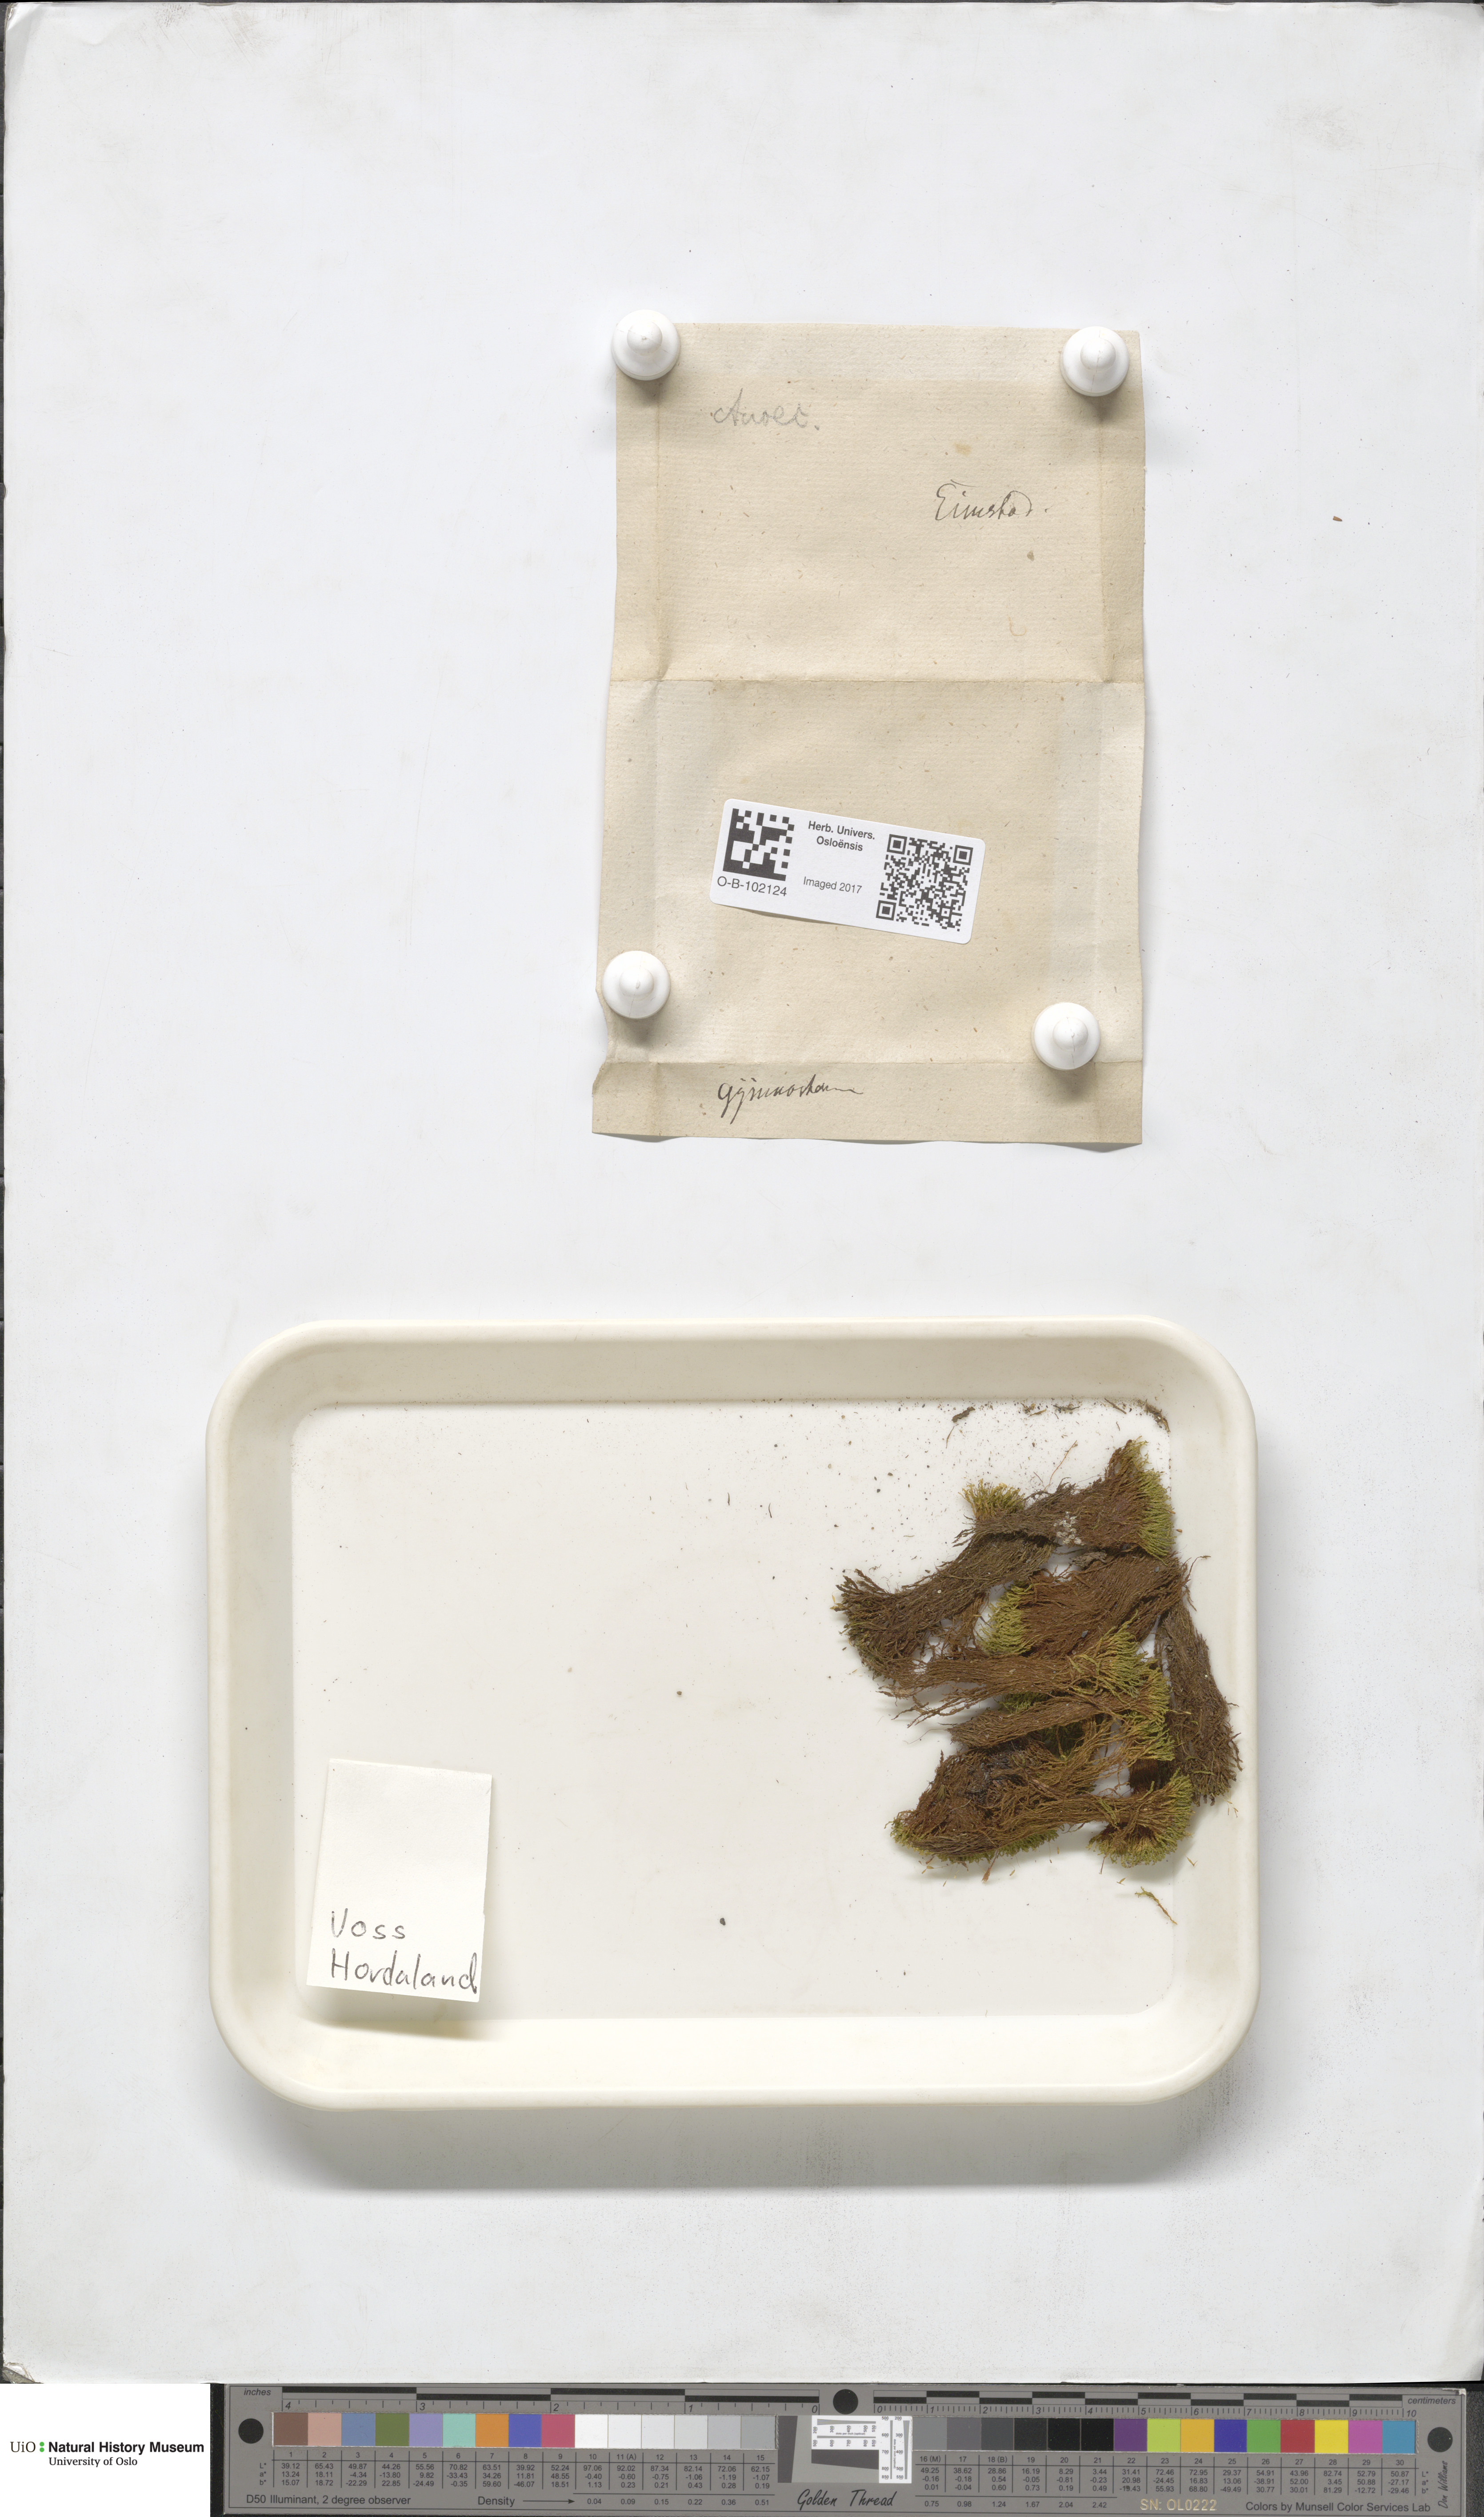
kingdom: Plantae
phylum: Bryophyta
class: Bryopsida
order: Pottiales
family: Pottiaceae
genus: Anoectangium
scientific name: Anoectangium aestivum
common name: Summer-moss
